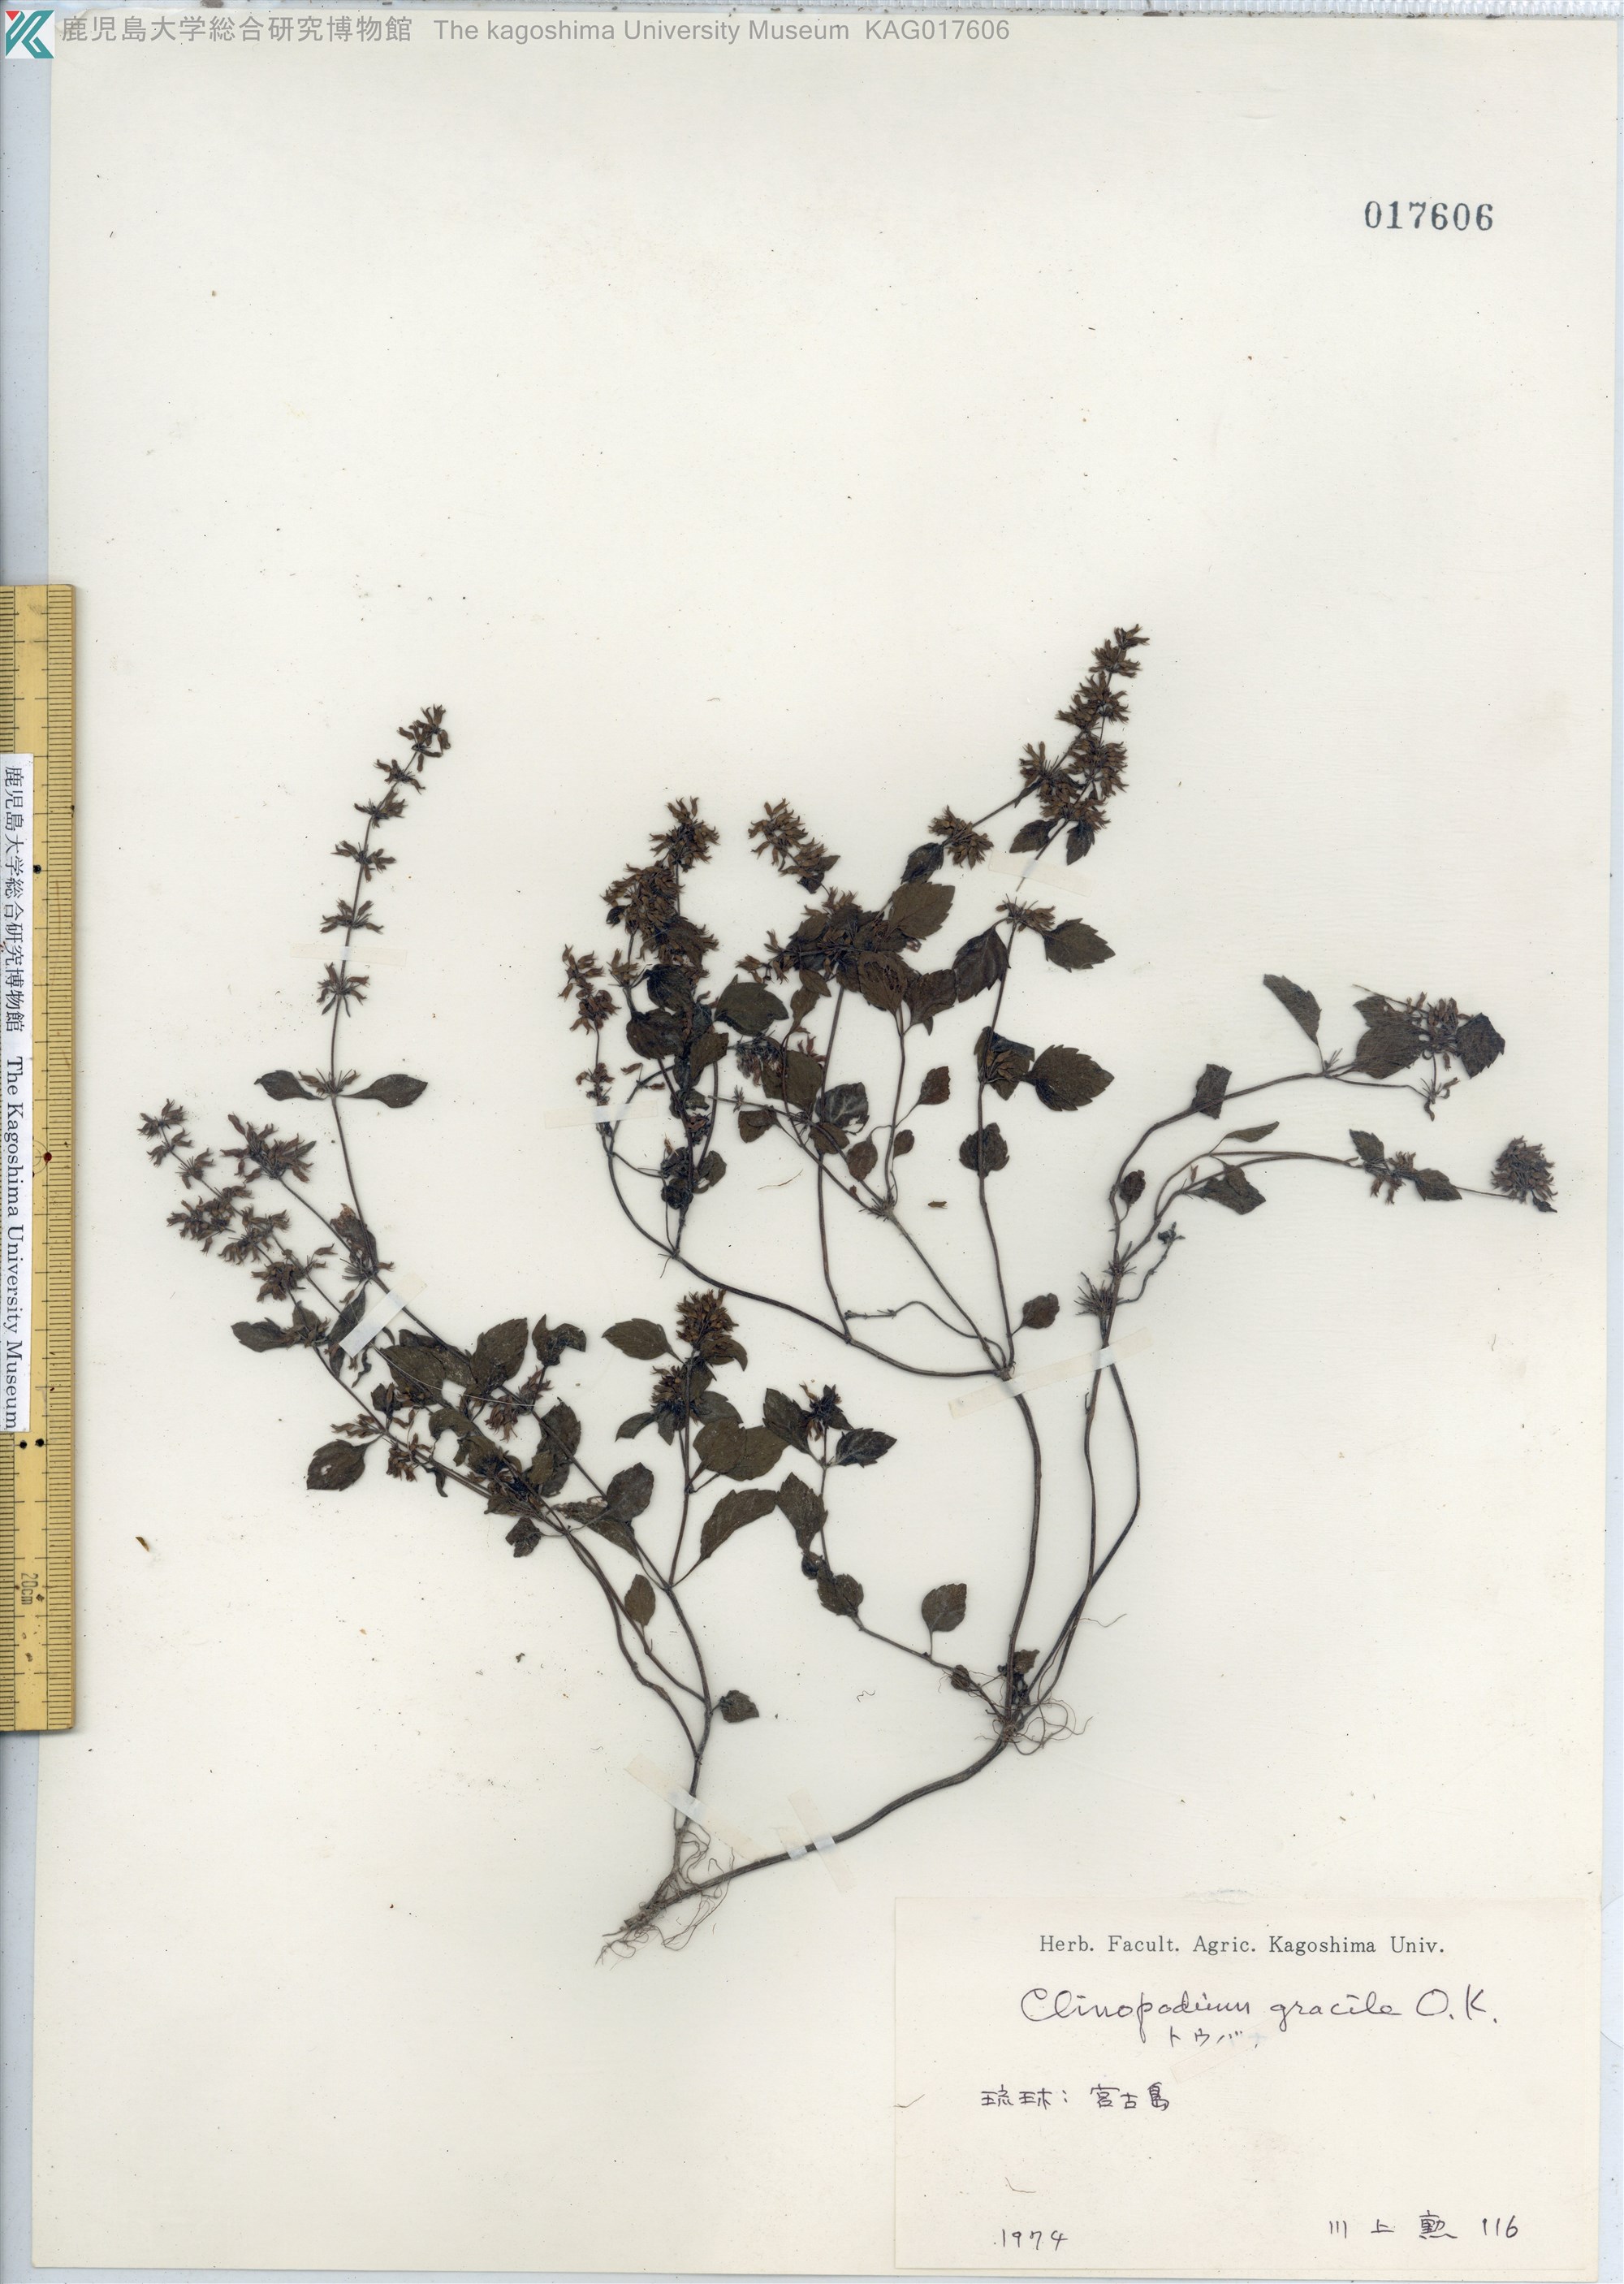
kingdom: Plantae
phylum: Tracheophyta
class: Magnoliopsida
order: Lamiales
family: Lamiaceae
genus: Clinopodium
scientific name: Clinopodium gracile
